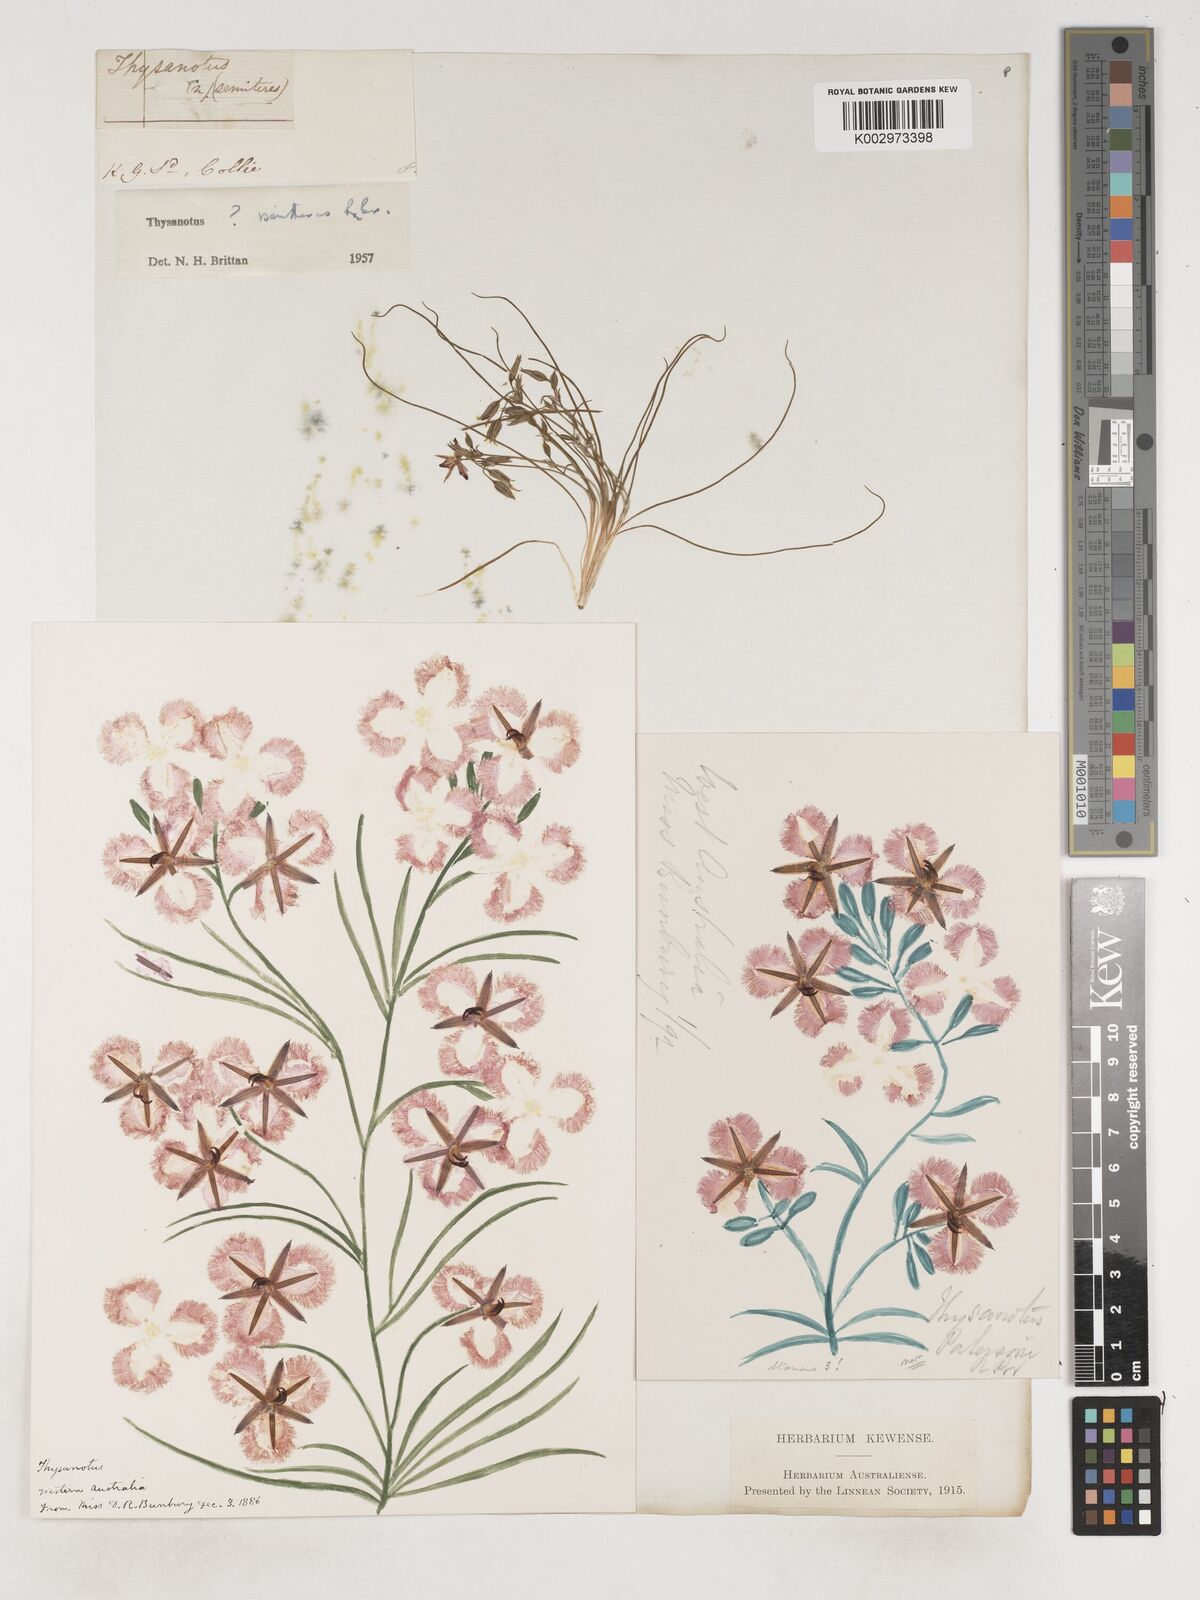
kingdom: Plantae
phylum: Tracheophyta
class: Liliopsida
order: Asparagales
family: Asparagaceae
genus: Thysanotus
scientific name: Thysanotus
